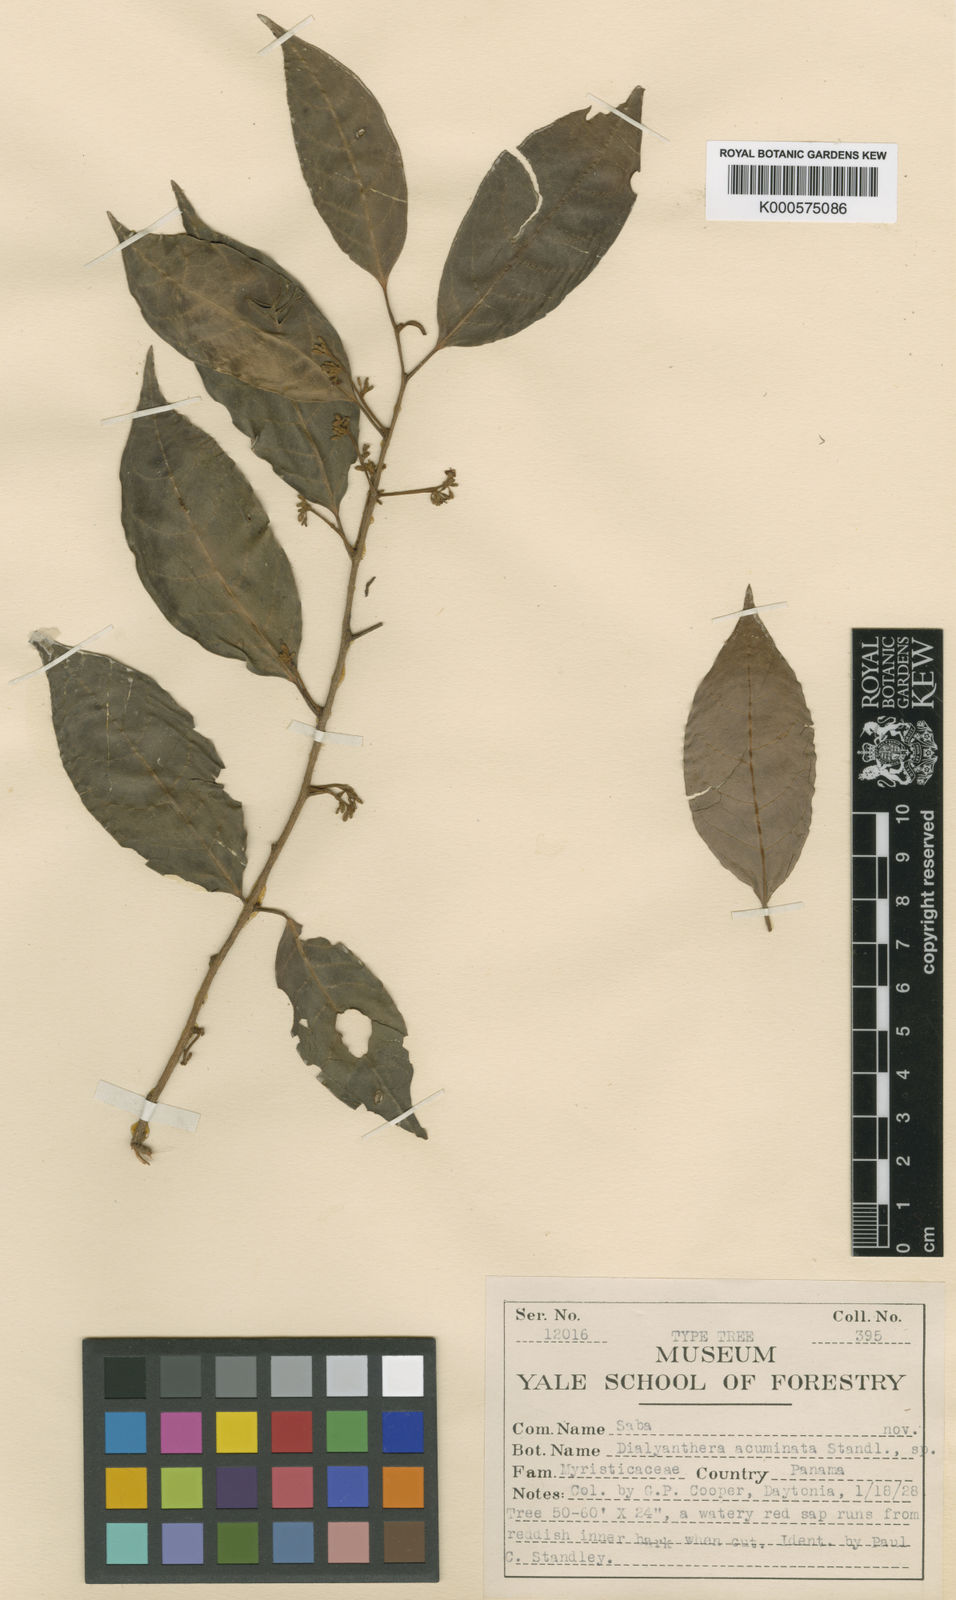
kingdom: Plantae
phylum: Tracheophyta
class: Magnoliopsida
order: Magnoliales
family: Myristicaceae
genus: Otoba
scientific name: Otoba acuminata
